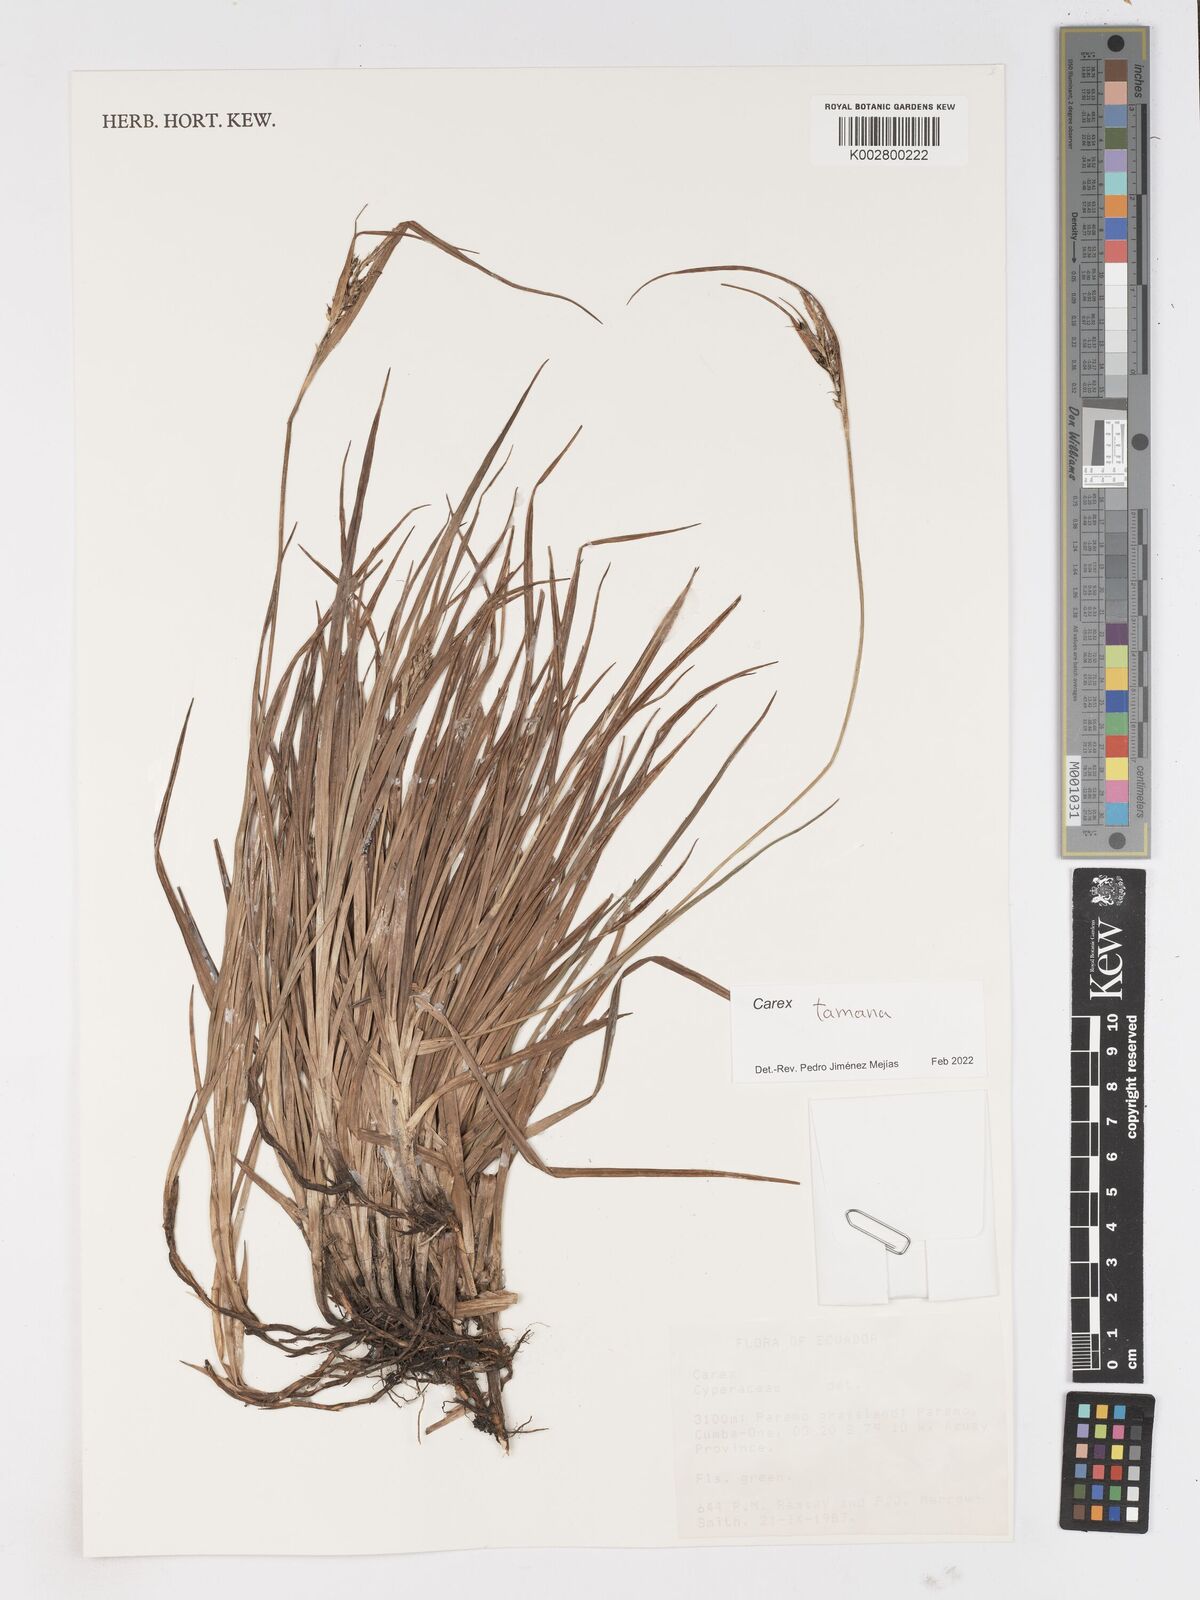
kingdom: Plantae
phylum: Tracheophyta
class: Liliopsida
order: Poales
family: Cyperaceae
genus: Carex
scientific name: Carex tamana
